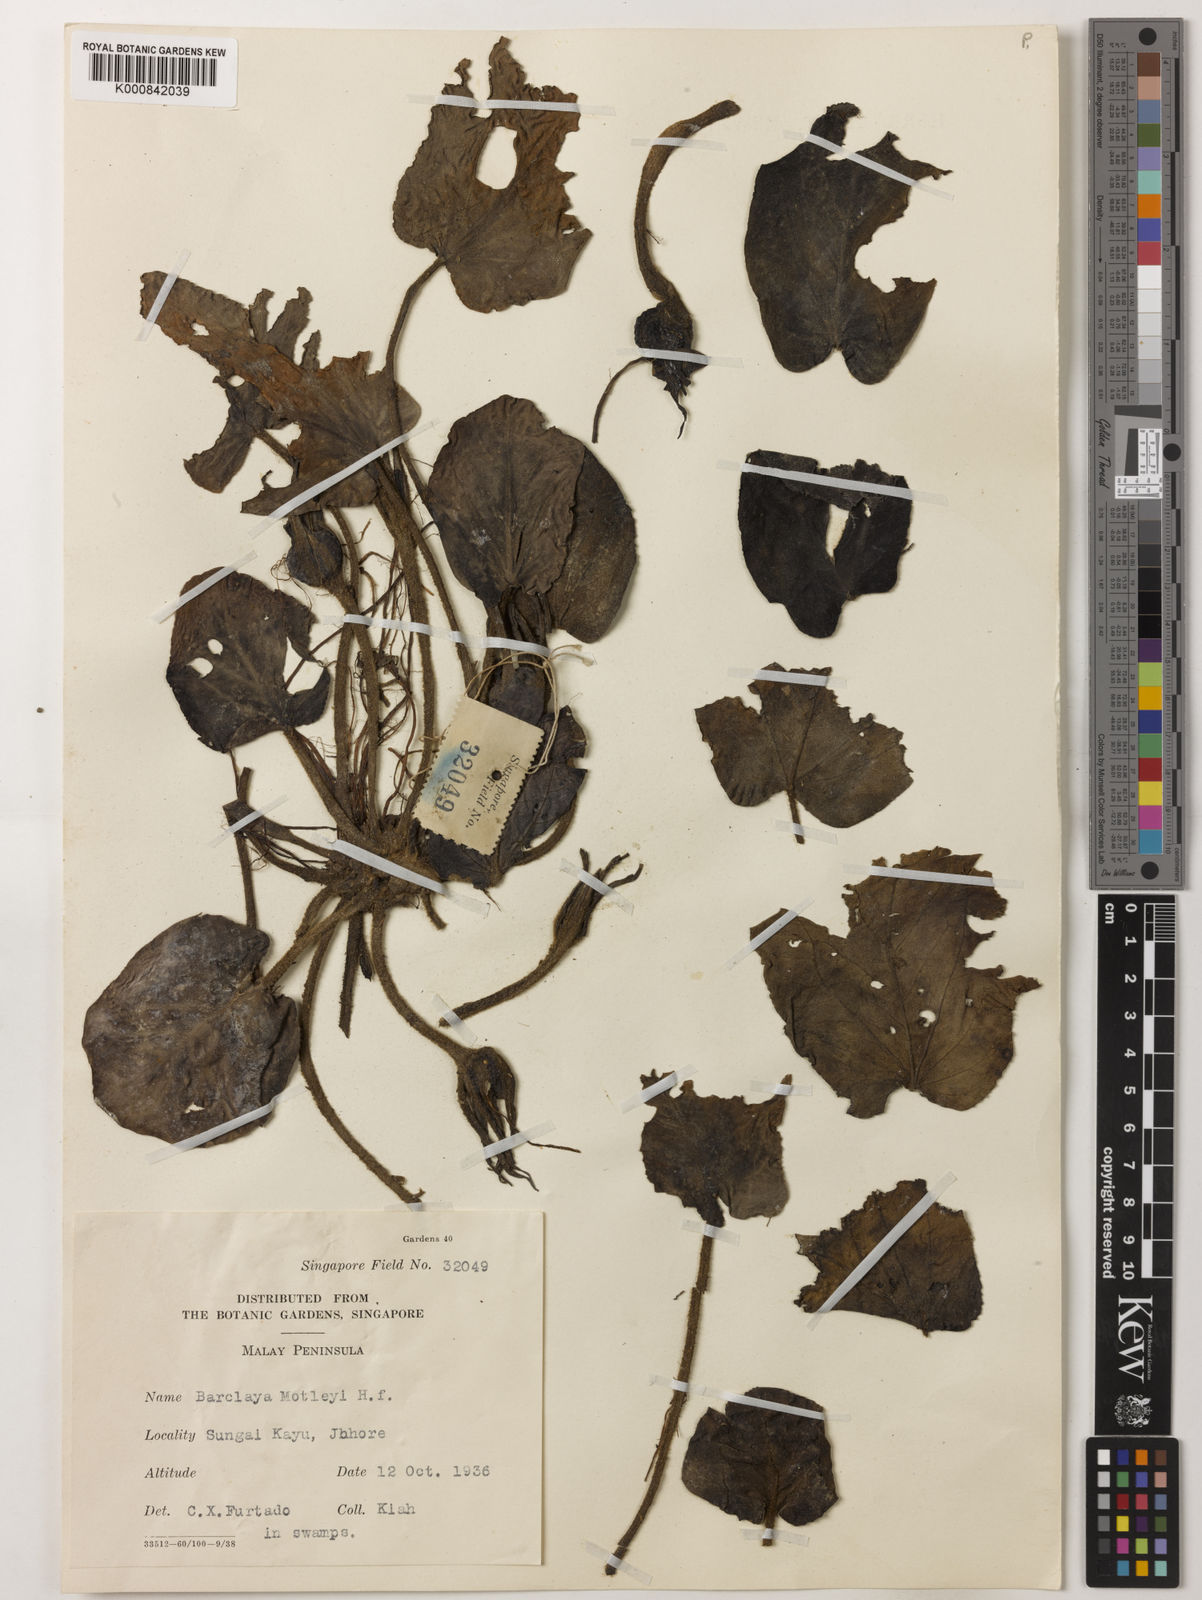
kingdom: Plantae
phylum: Tracheophyta
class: Magnoliopsida
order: Nymphaeales
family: Nymphaeaceae
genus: Barclaya
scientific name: Barclaya motleyi
